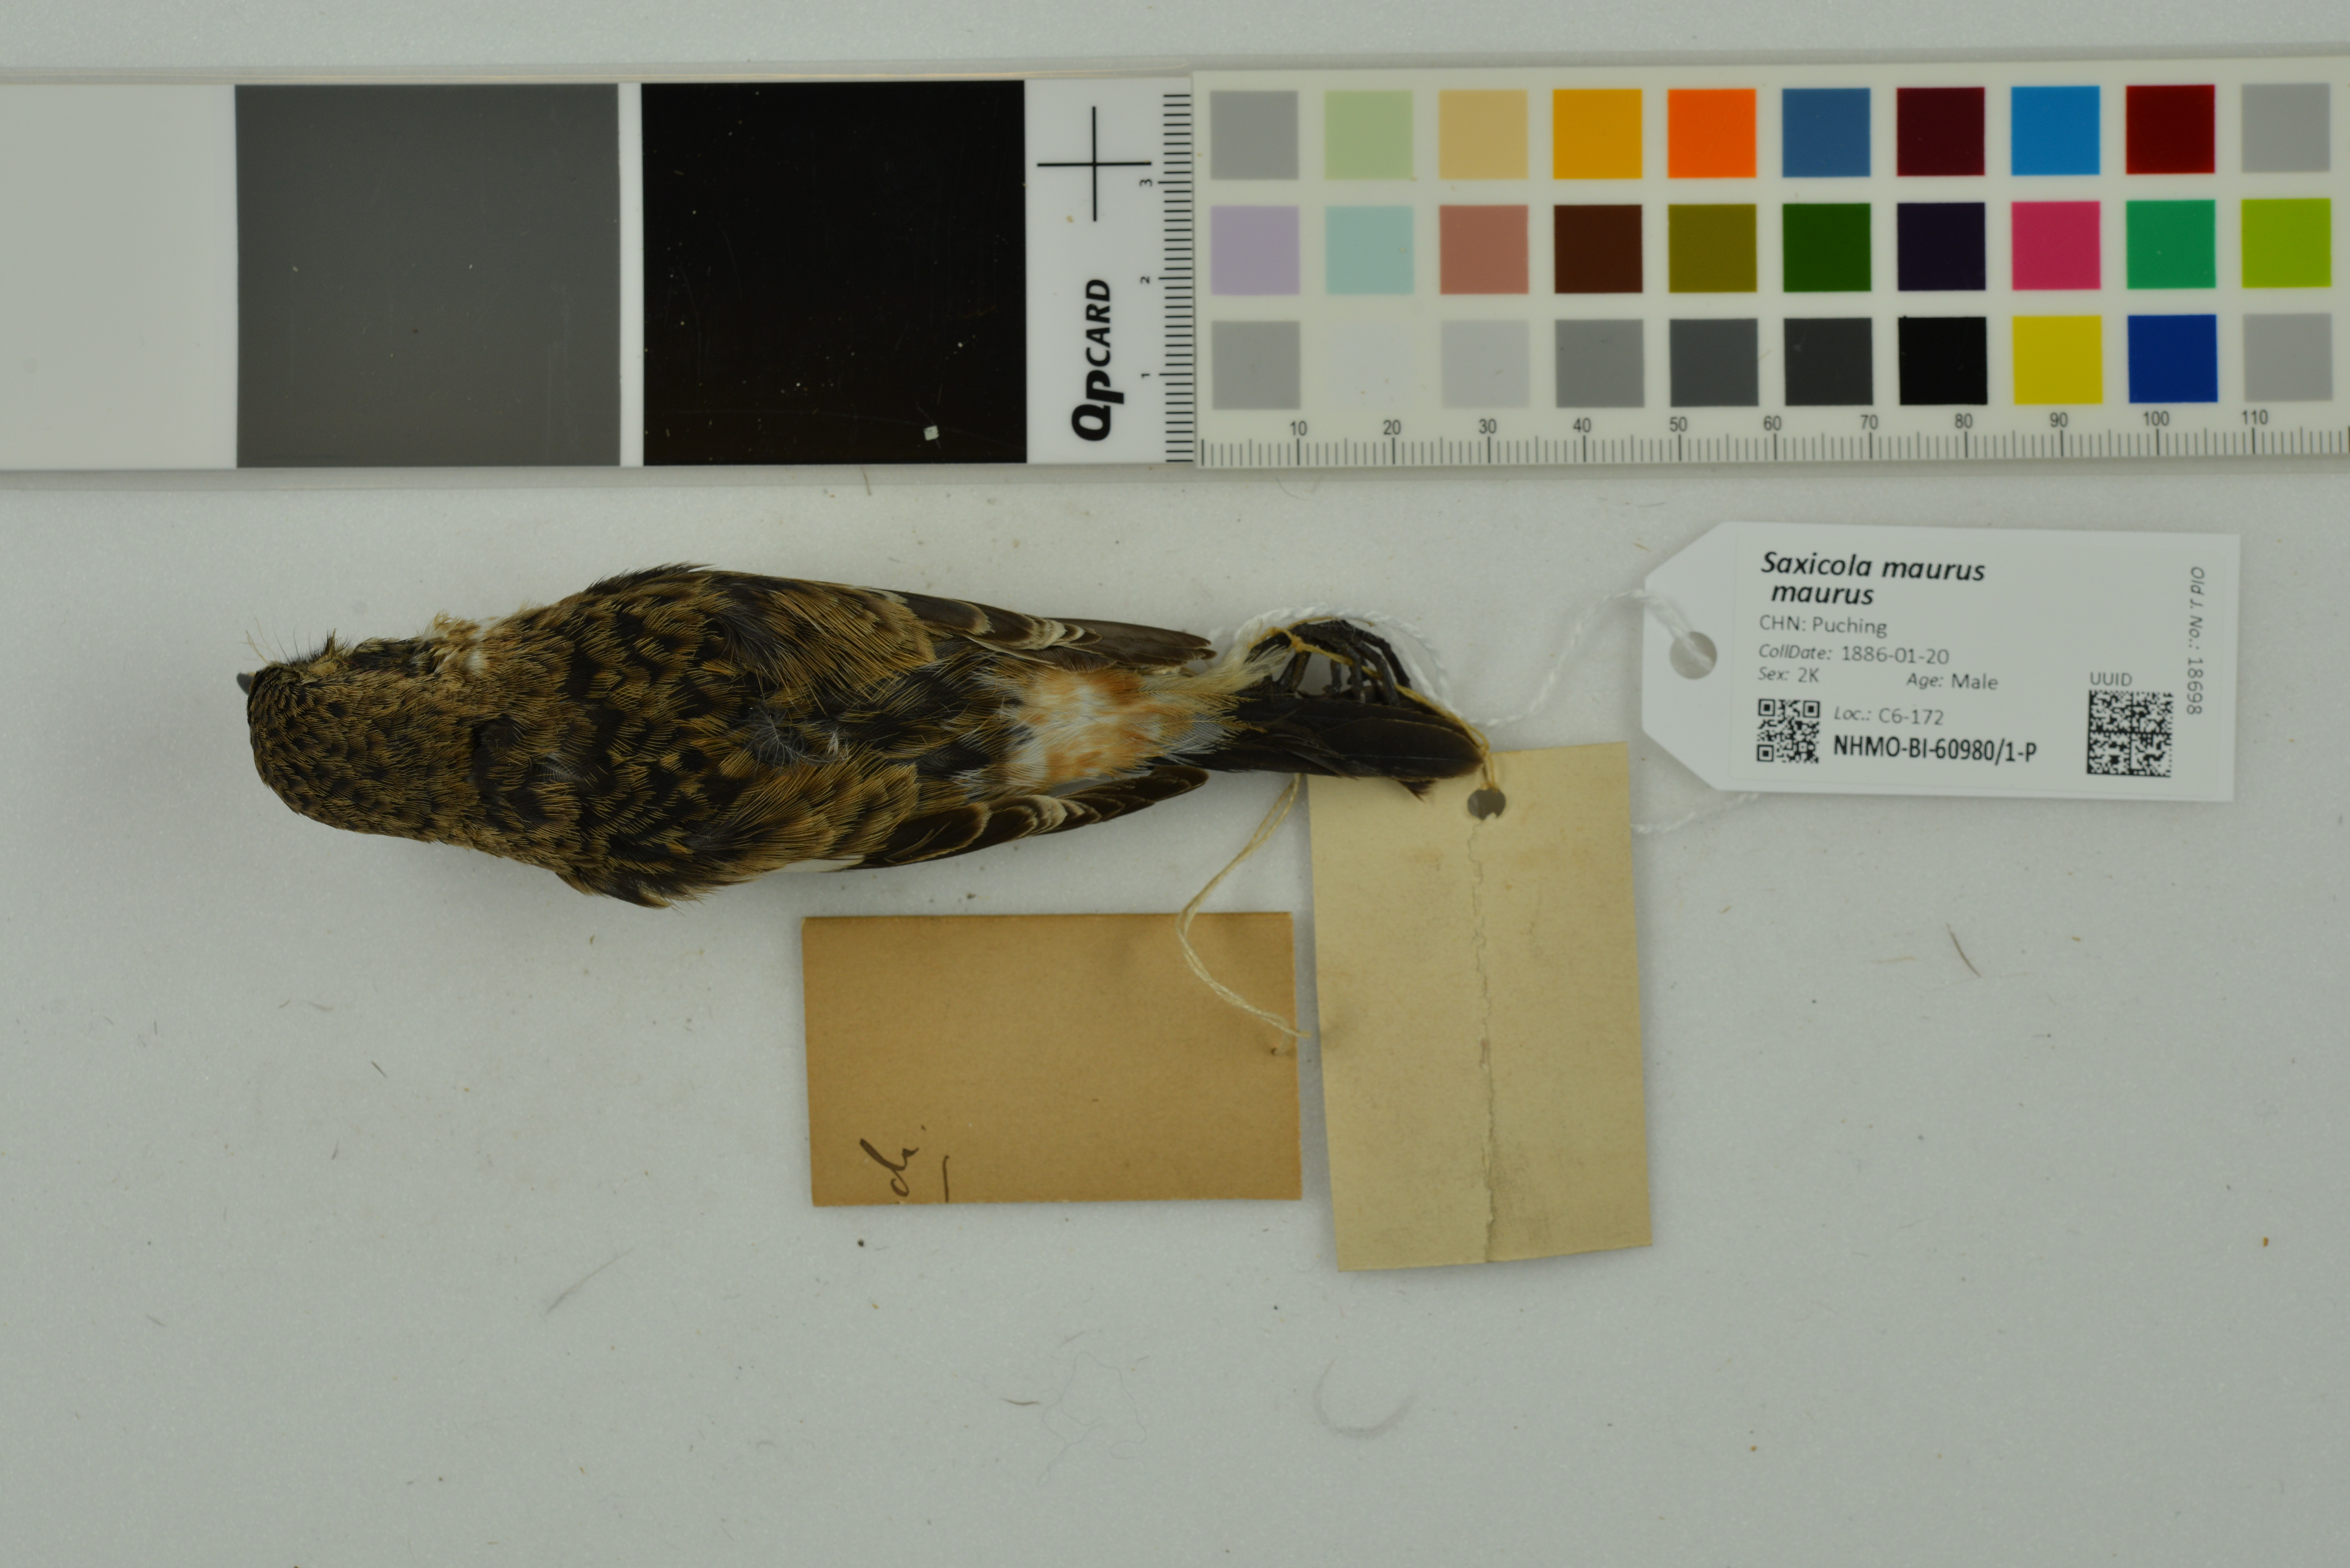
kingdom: Animalia
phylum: Chordata
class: Aves
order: Passeriformes
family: Muscicapidae
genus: Saxicola
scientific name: Saxicola maurus
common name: Siberian stonechat
